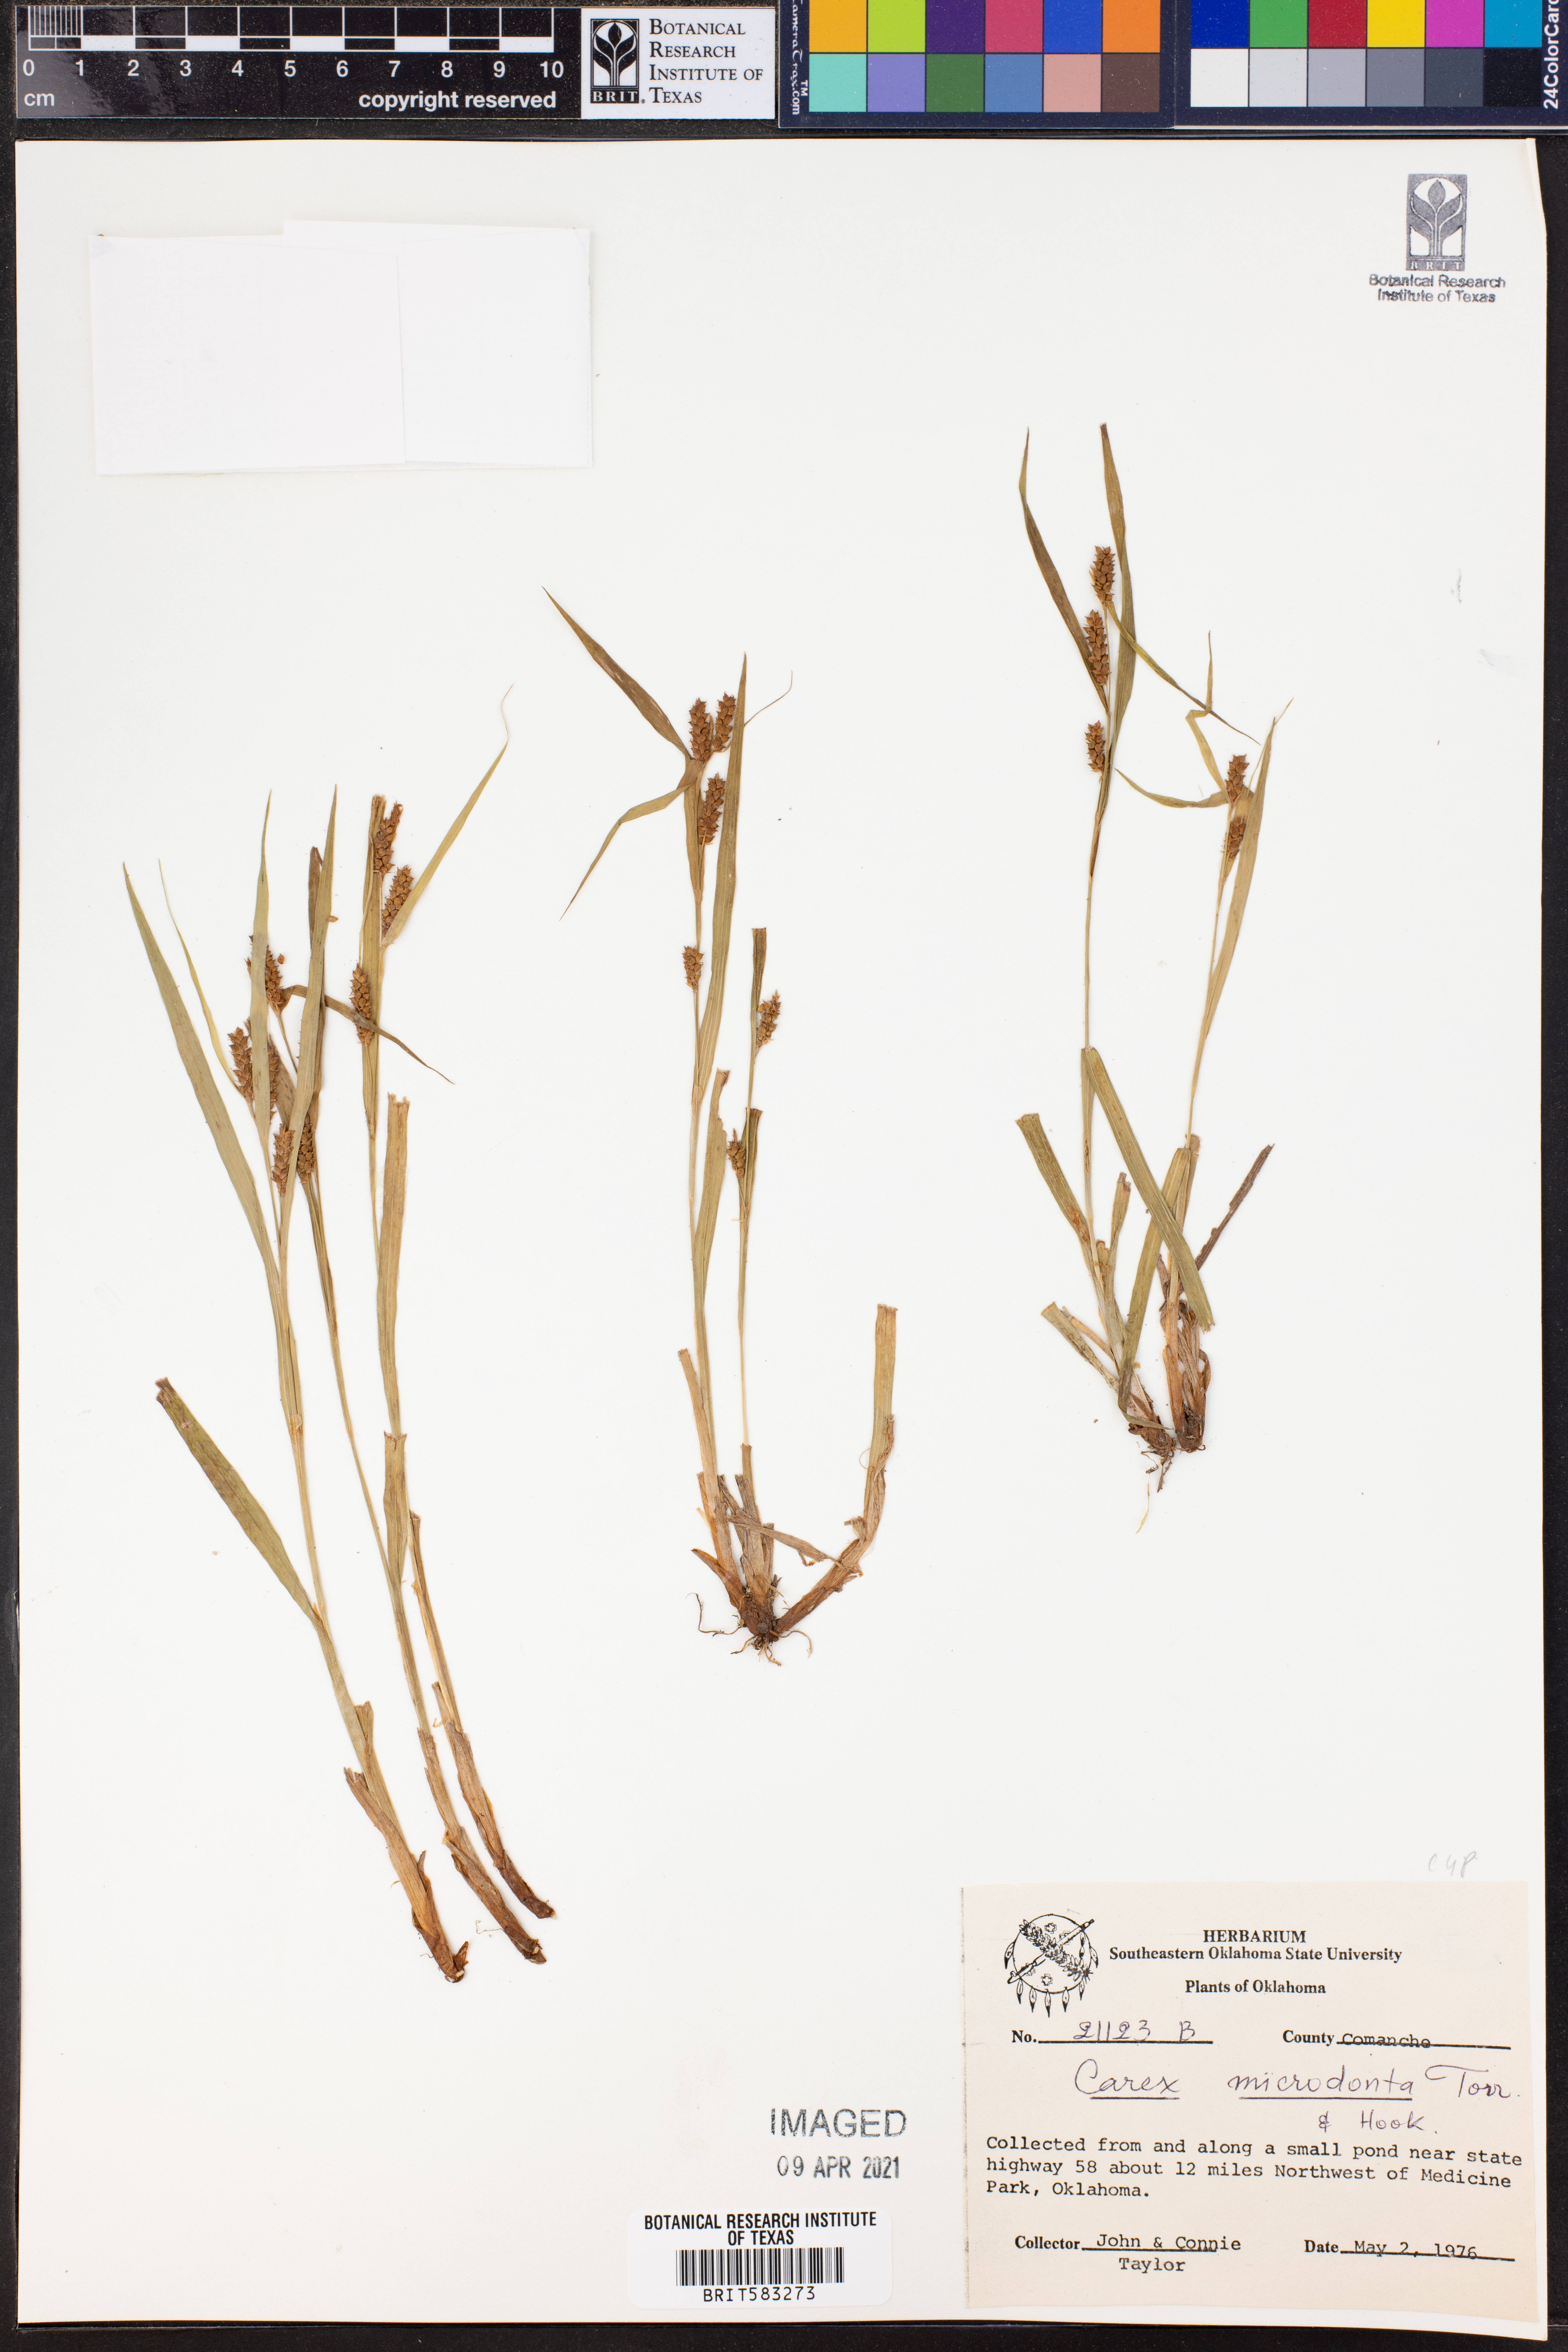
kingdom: Plantae
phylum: Tracheophyta
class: Liliopsida
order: Poales
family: Cyperaceae
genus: Carex
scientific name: Carex microdonta
